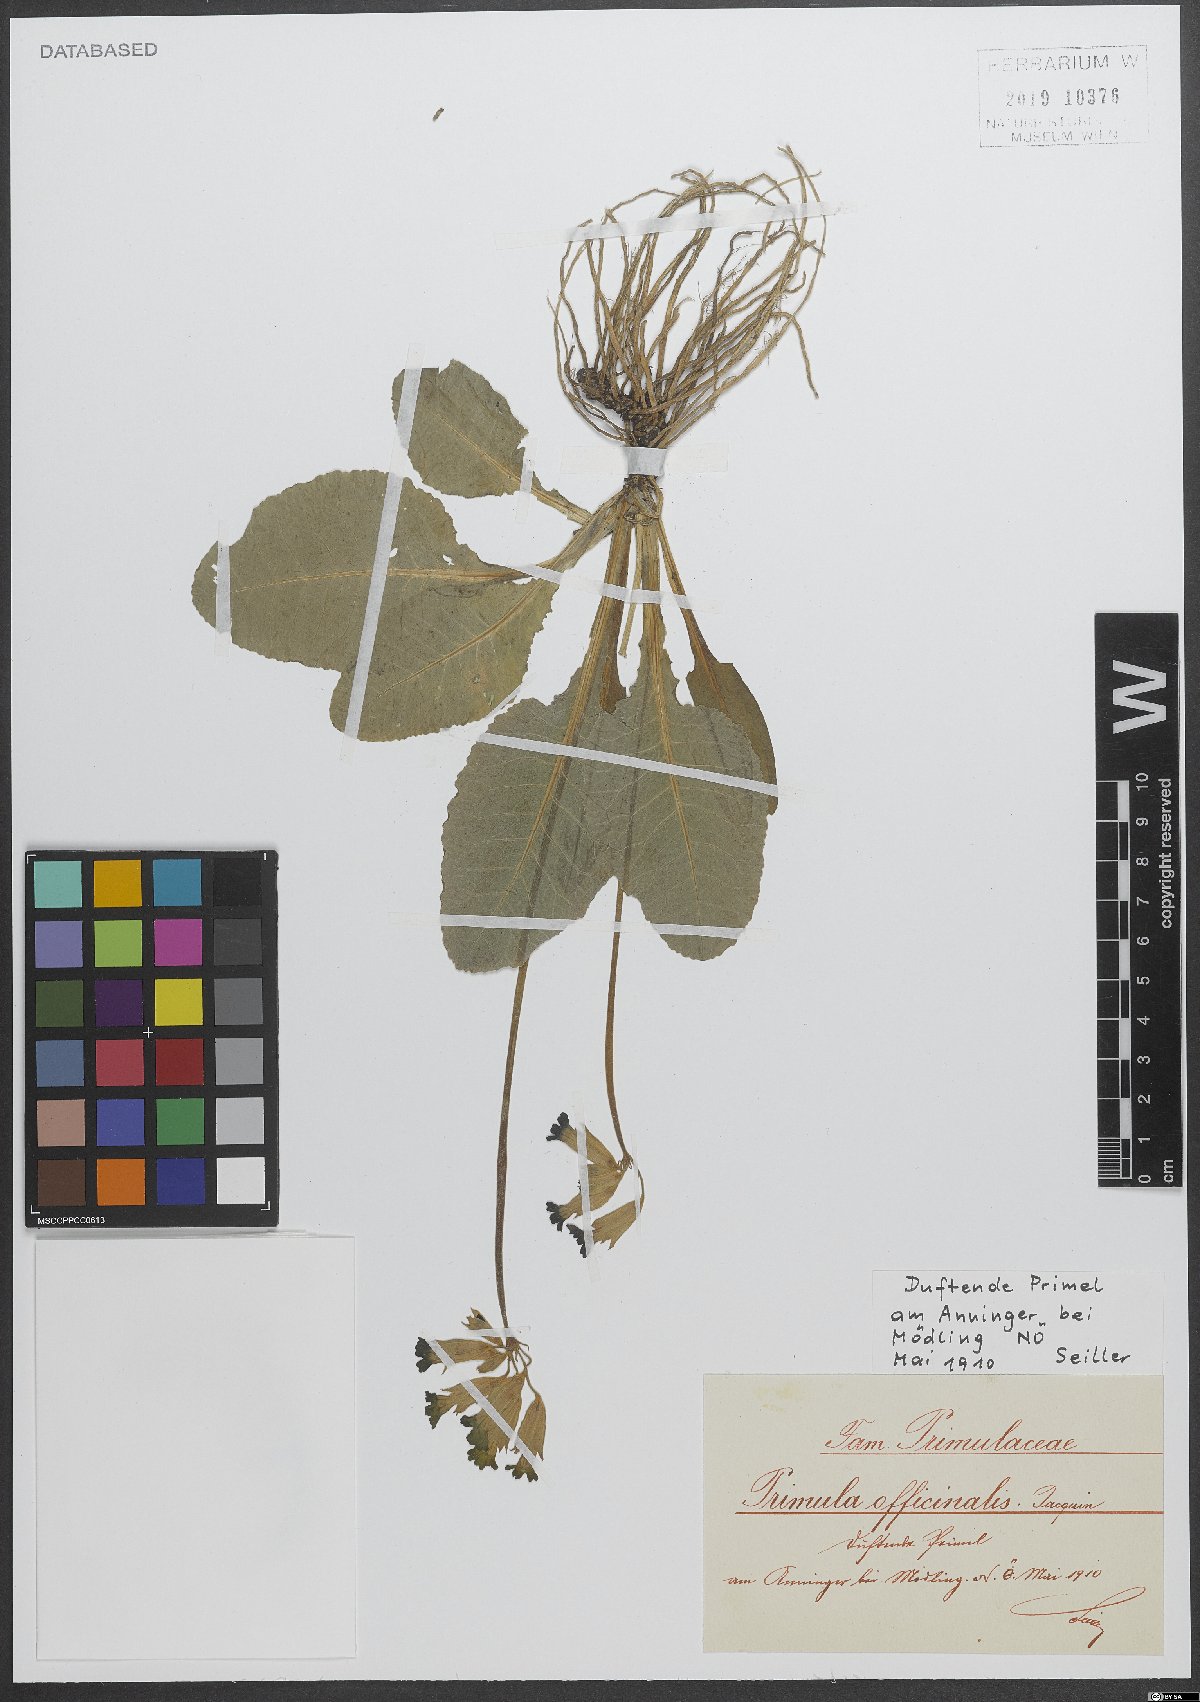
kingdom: Plantae
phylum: Tracheophyta
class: Magnoliopsida
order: Ericales
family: Primulaceae
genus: Primula
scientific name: Primula veris
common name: Cowslip
